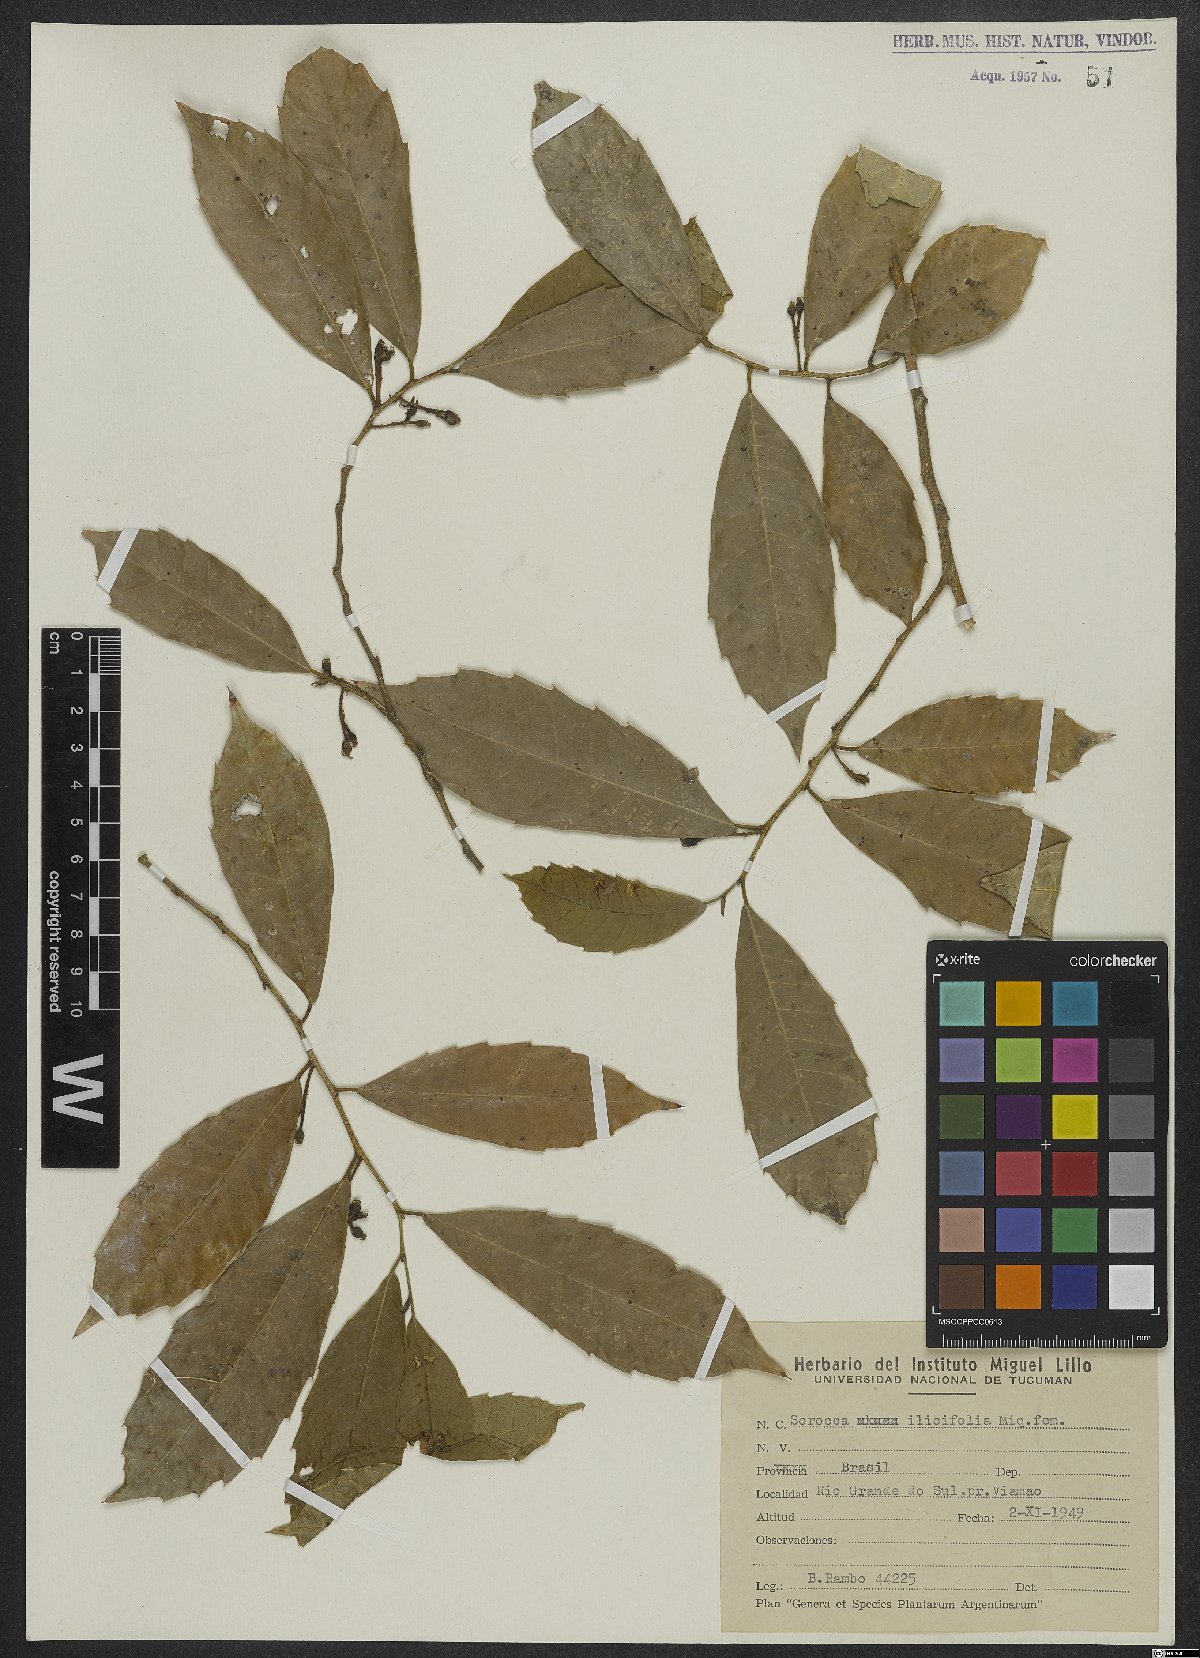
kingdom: Plantae
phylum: Tracheophyta
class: Magnoliopsida
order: Rosales
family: Moraceae
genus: Sorocea
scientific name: Sorocea
